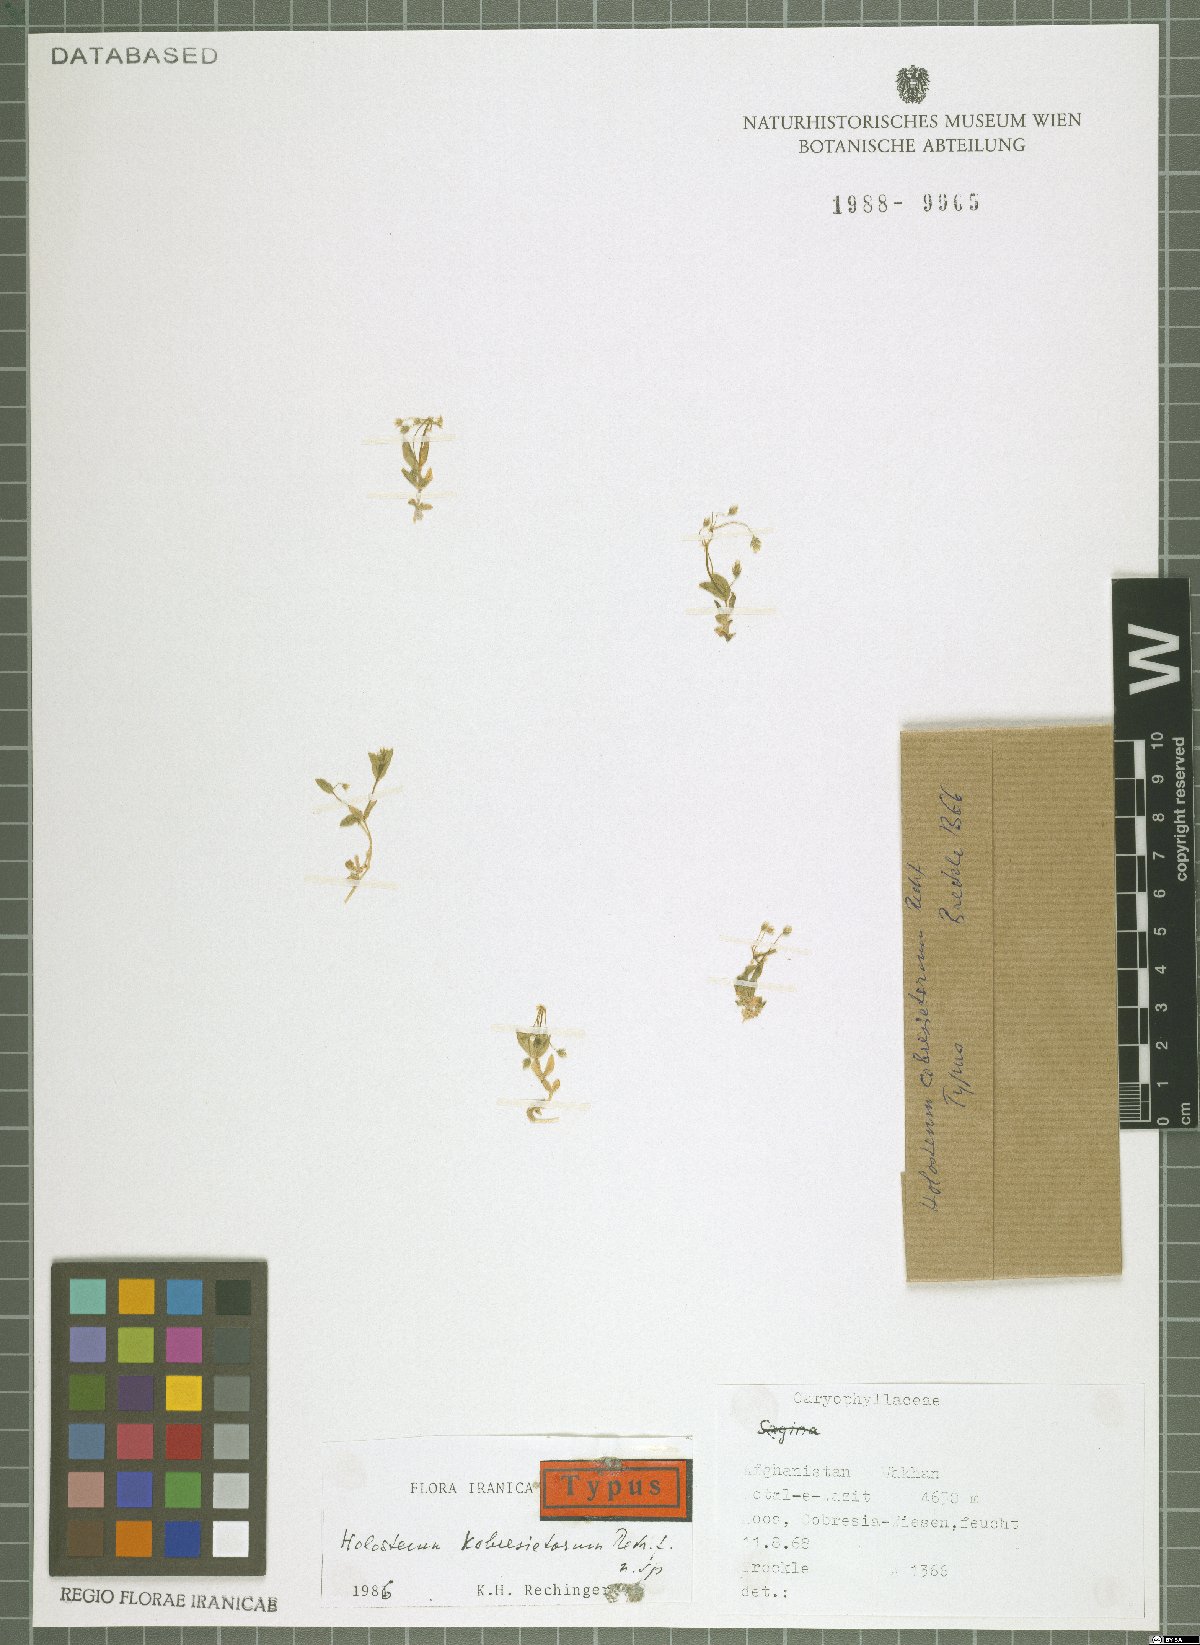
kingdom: Plantae
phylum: Tracheophyta
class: Magnoliopsida
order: Caryophyllales
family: Caryophyllaceae
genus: Holosteum
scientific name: Holosteum kobresietorum
